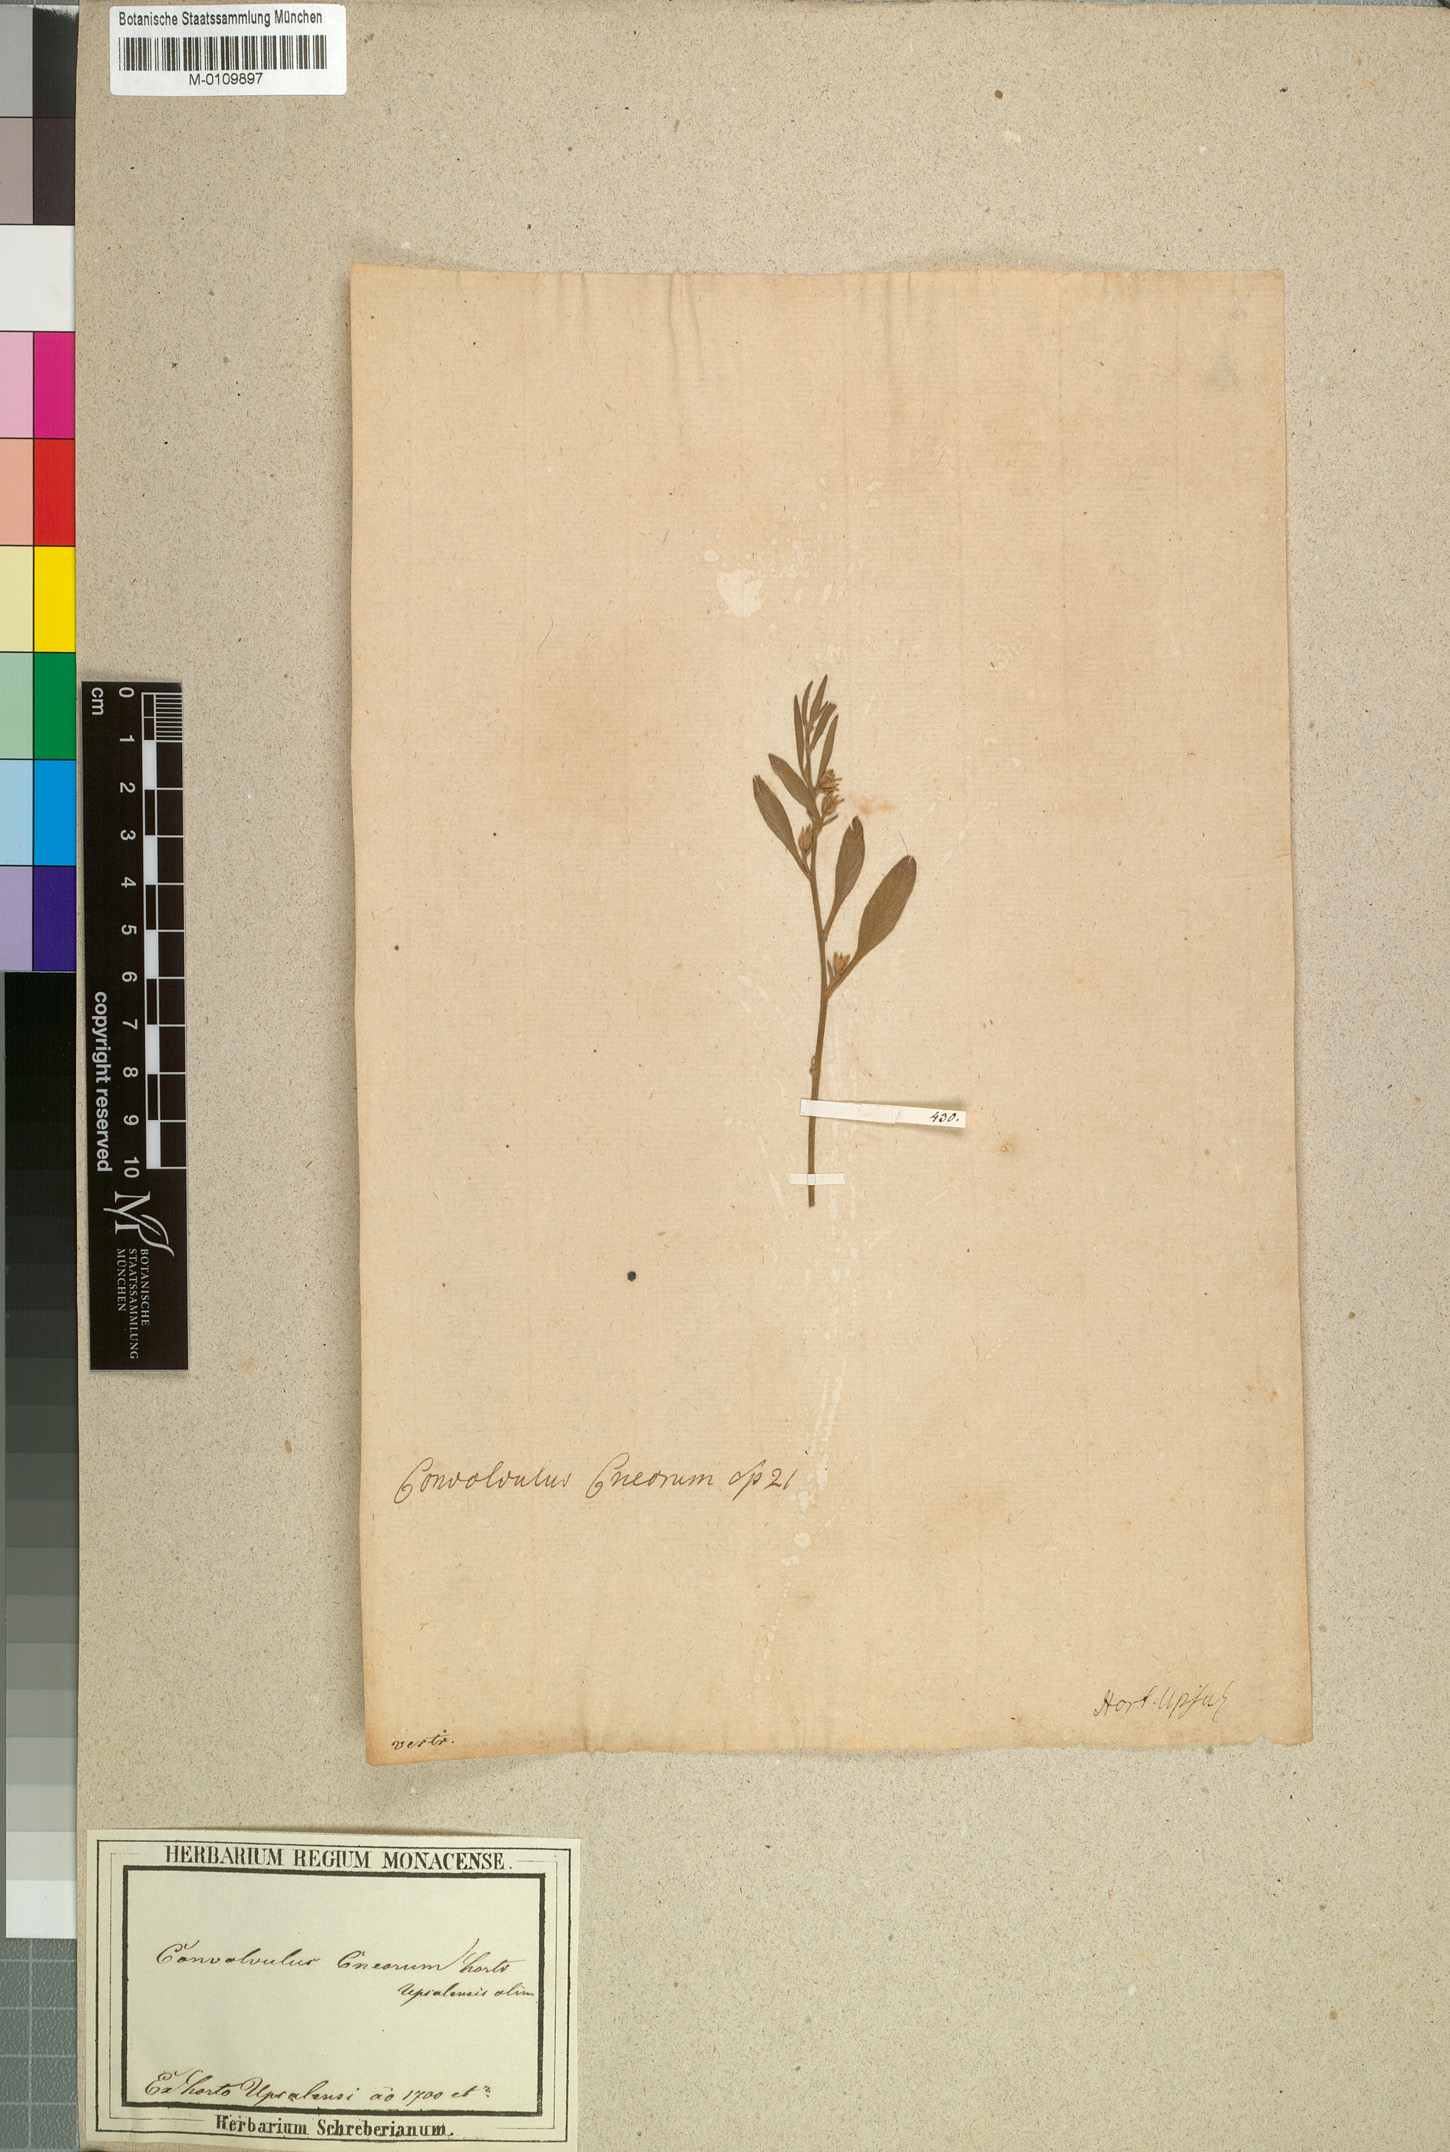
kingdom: Plantae
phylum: Tracheophyta
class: Magnoliopsida
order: Solanales
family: Convolvulaceae
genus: Convolvulus
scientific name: Convolvulus lineatus
